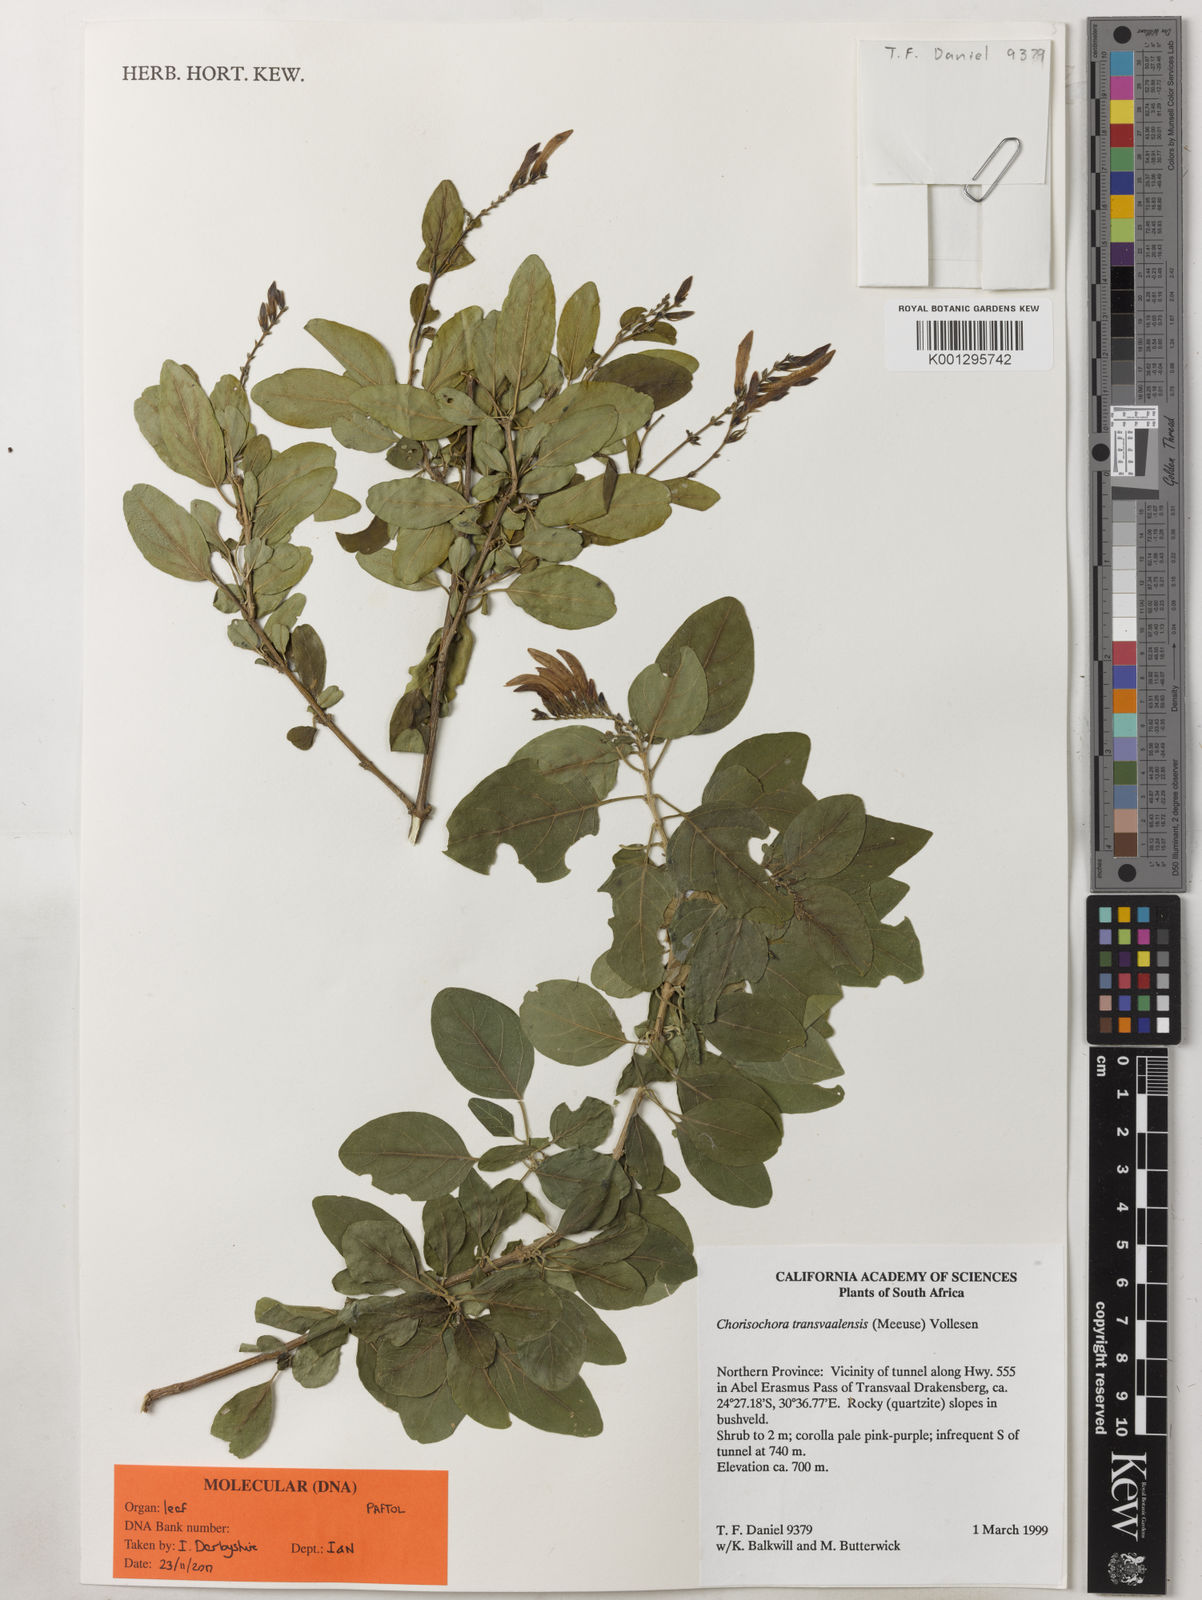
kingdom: Plantae
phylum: Tracheophyta
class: Magnoliopsida
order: Lamiales
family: Acanthaceae
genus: Chorisochora
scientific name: Chorisochora transvaalensis
